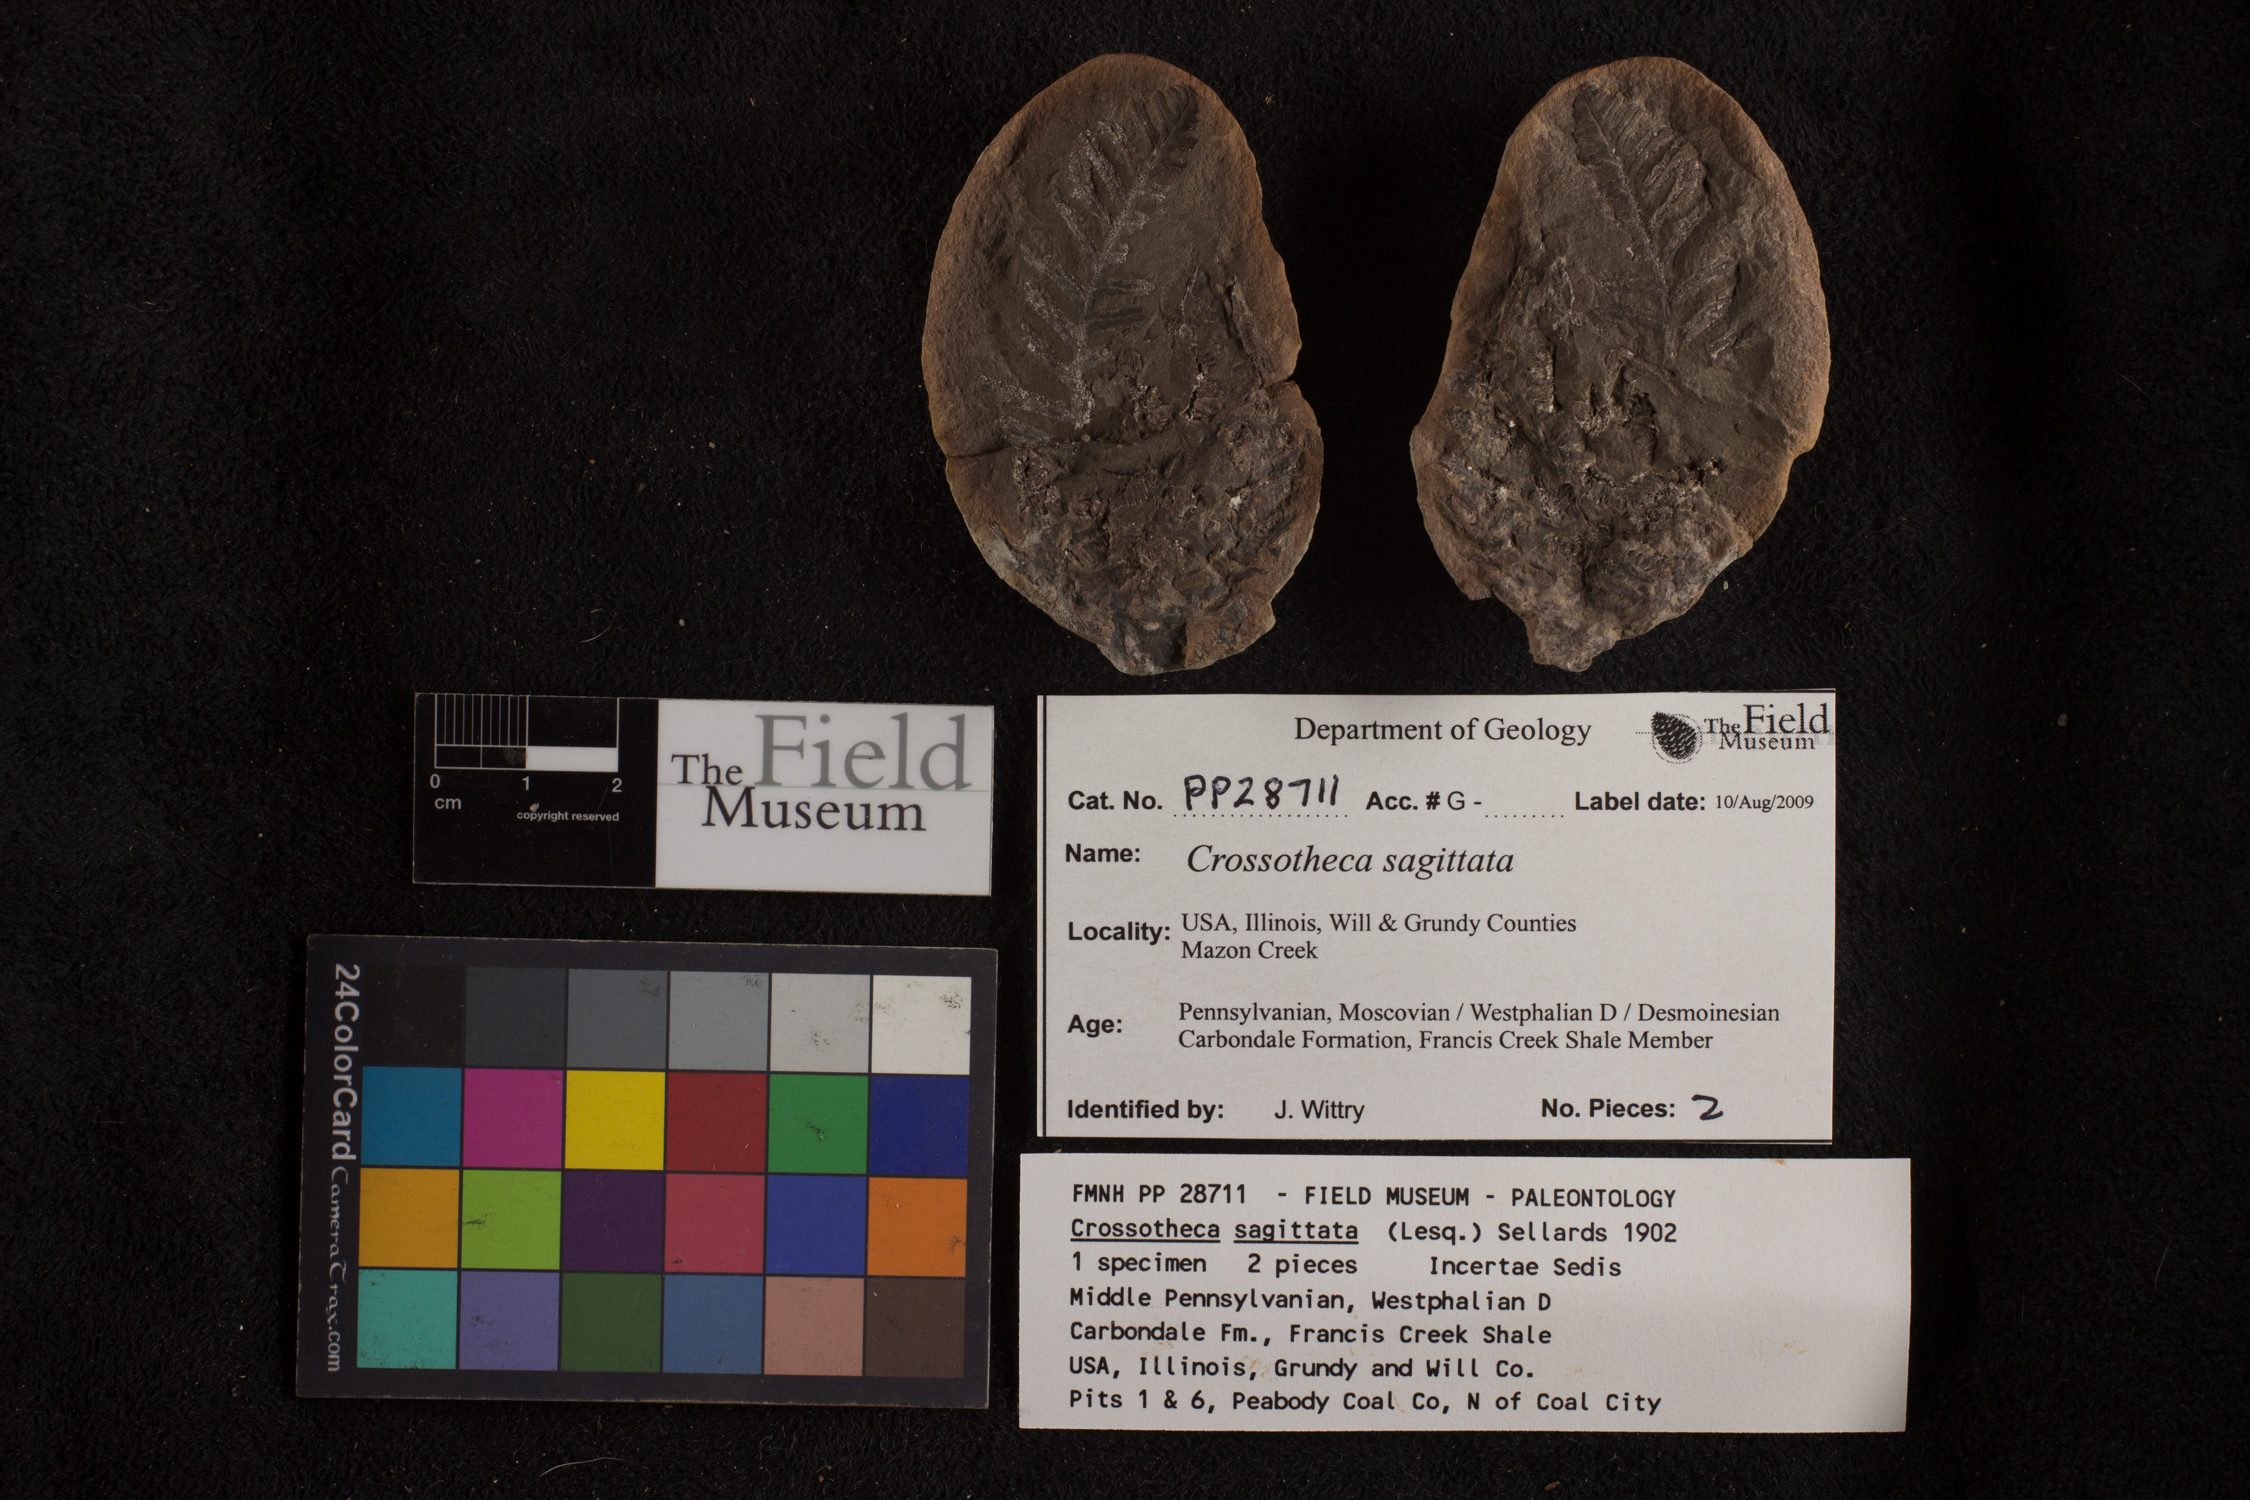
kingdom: Plantae
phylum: Tracheophyta
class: Polypodiopsida
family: Stauropteridaceae
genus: Crossotheca
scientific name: Crossotheca
